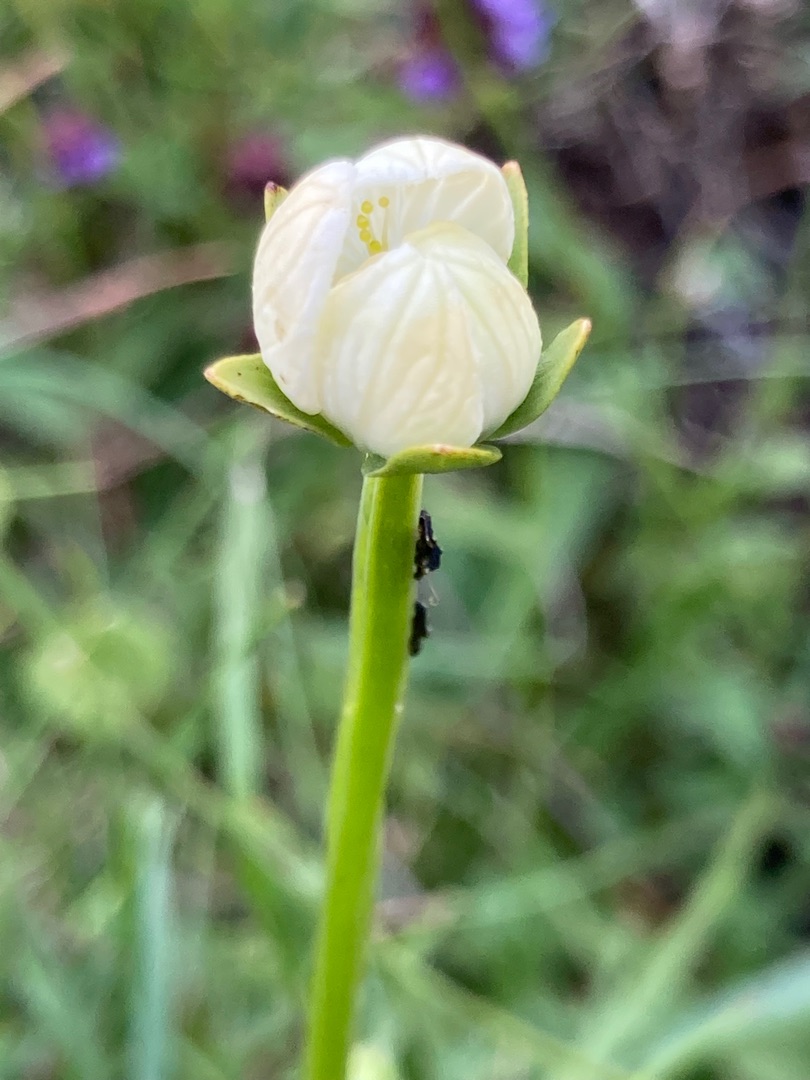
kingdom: Plantae
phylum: Tracheophyta
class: Magnoliopsida
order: Celastrales
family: Parnassiaceae
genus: Parnassia
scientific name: Parnassia palustris
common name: Leverurt
